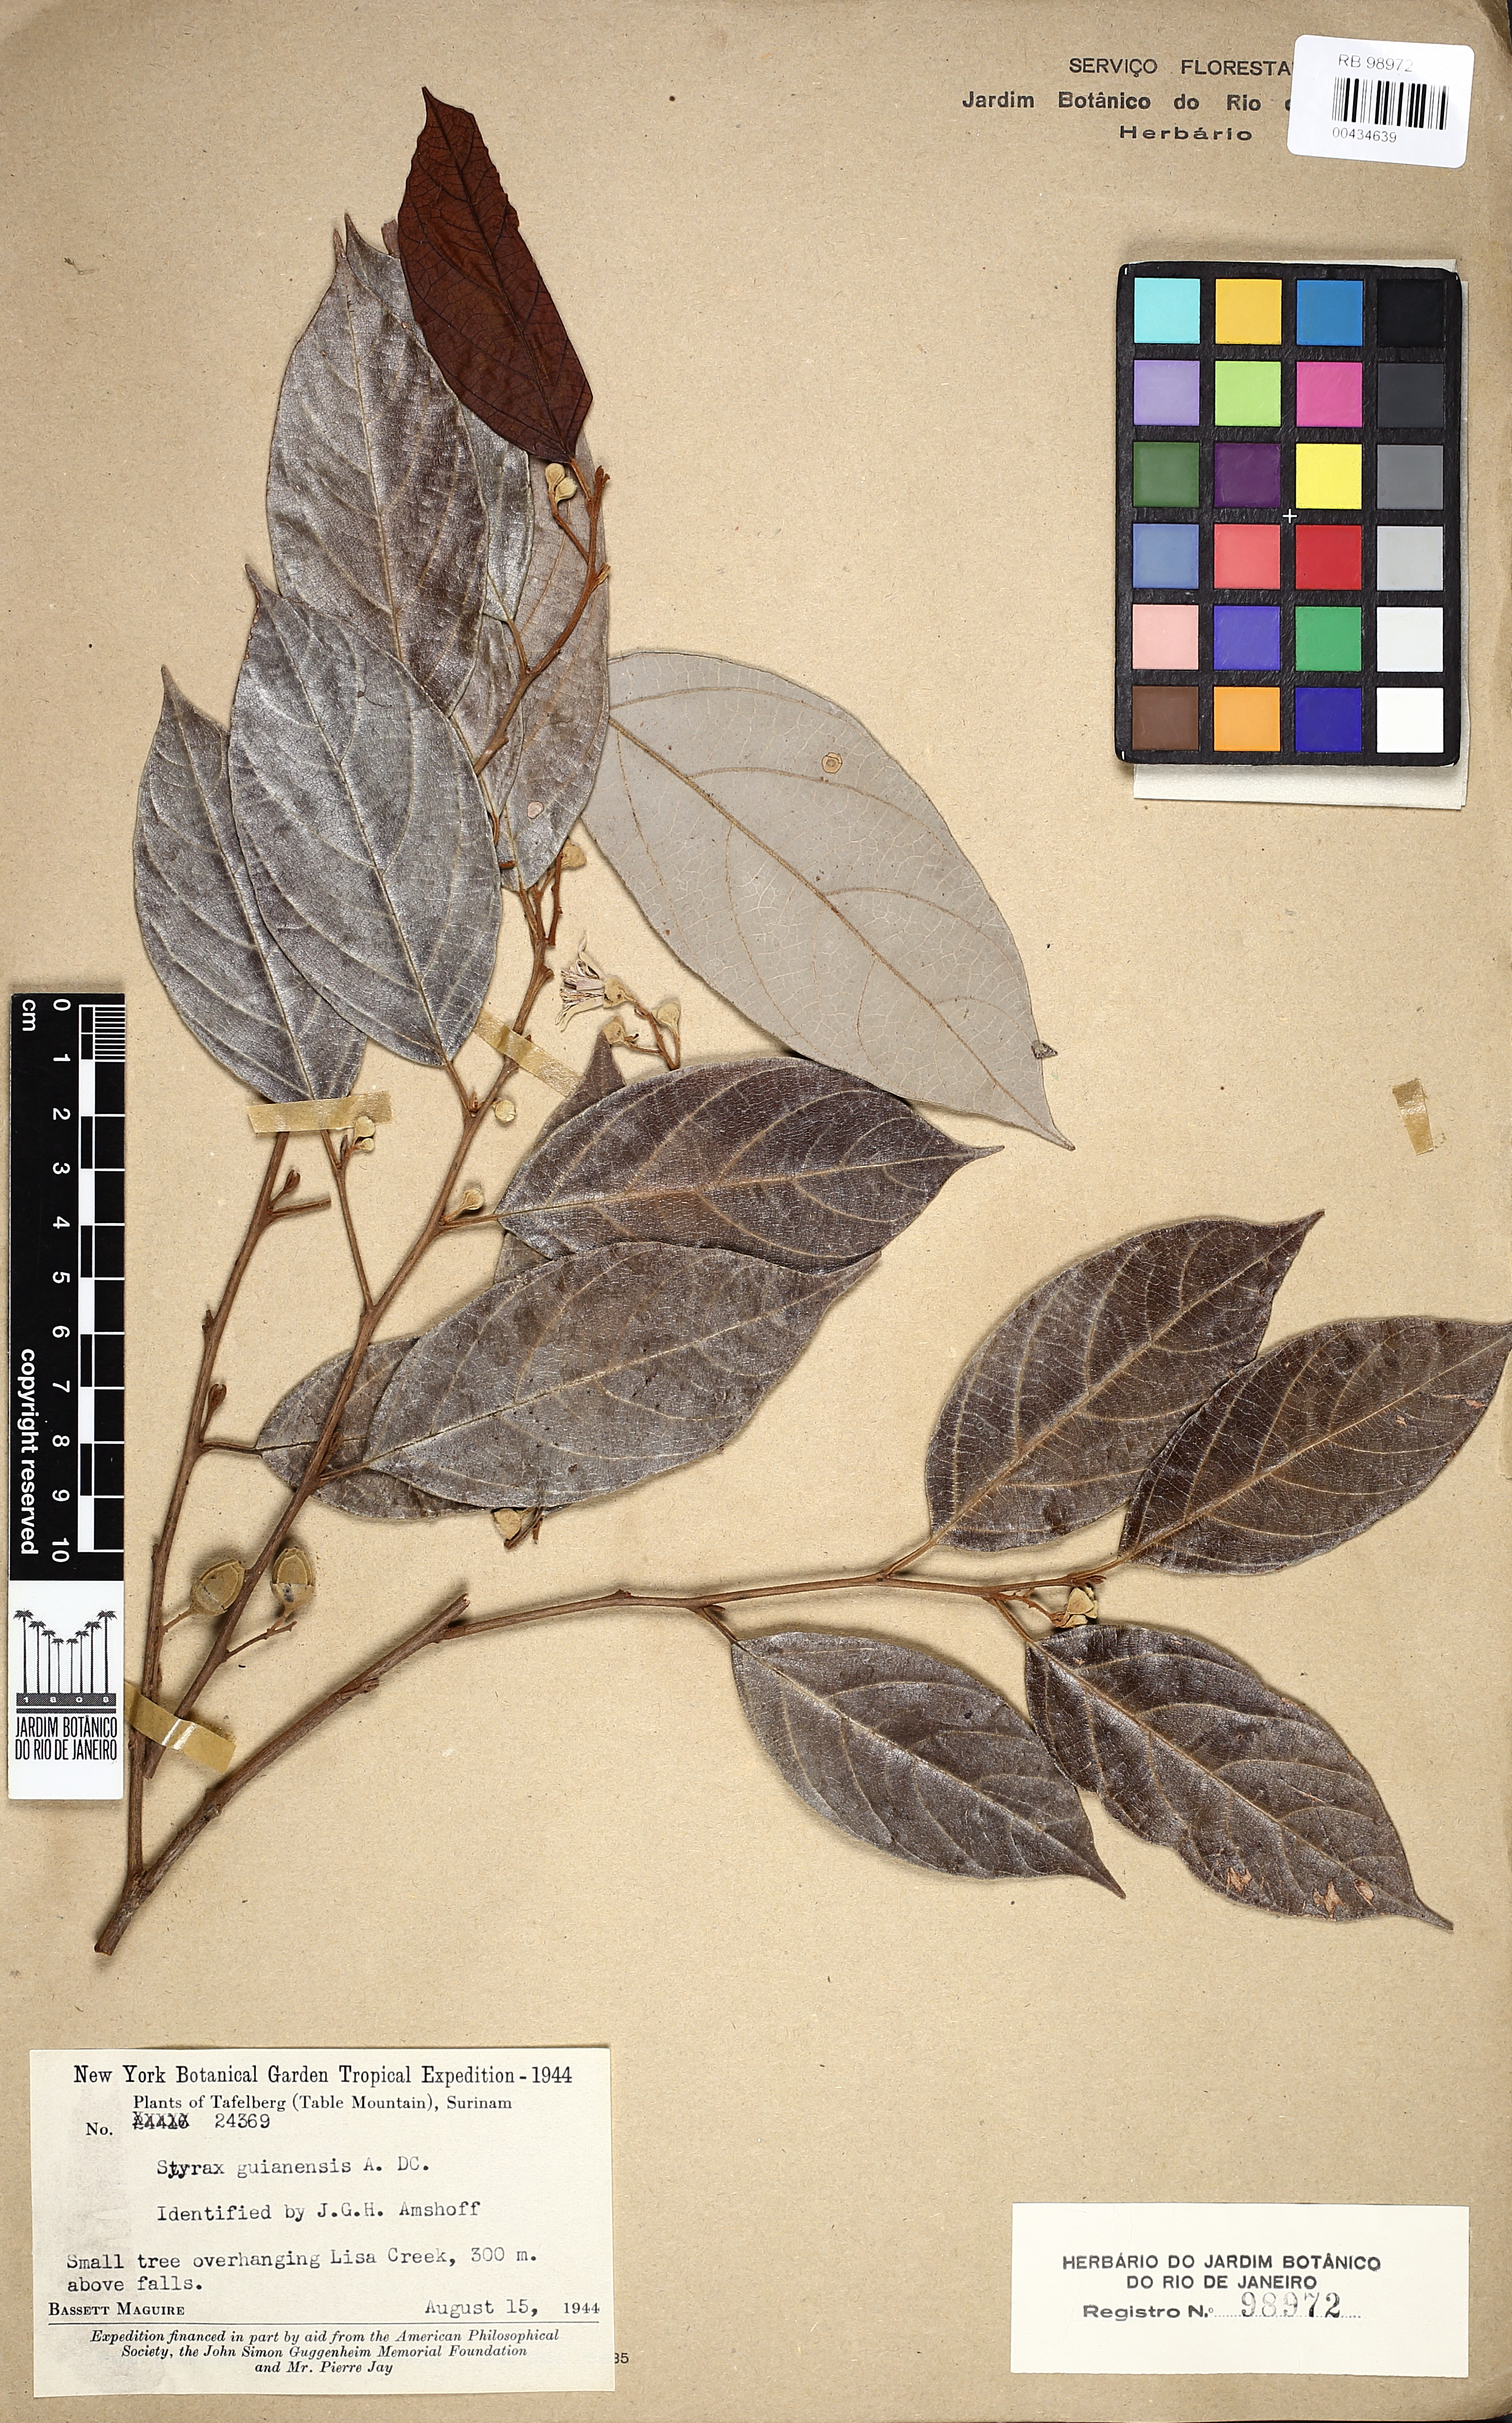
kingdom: Plantae
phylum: Tracheophyta
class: Magnoliopsida
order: Ericales
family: Styracaceae
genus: Styrax
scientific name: Styrax guyanensis
